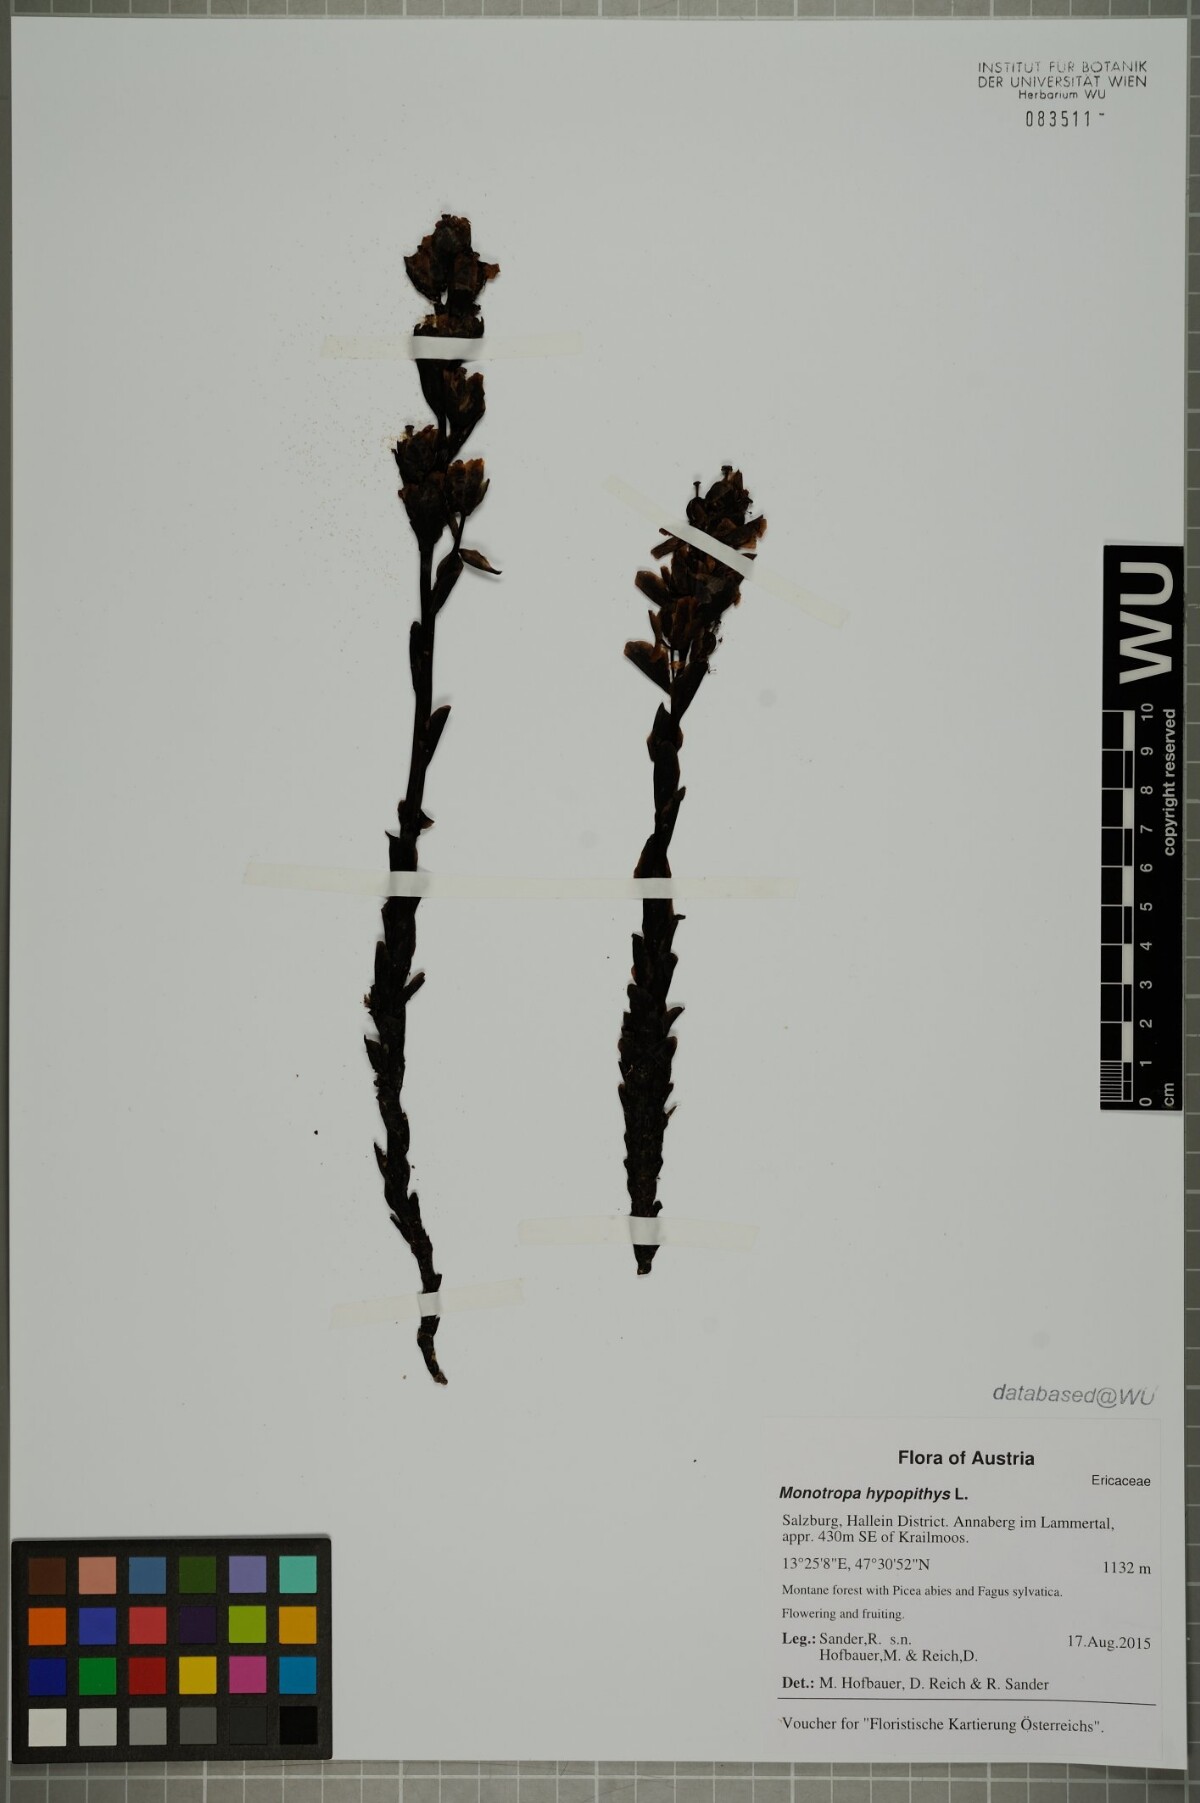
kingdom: Plantae
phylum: Tracheophyta
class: Magnoliopsida
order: Ericales
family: Ericaceae
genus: Hypopitys
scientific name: Hypopitys monotropa
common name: Yellow bird's-nest
